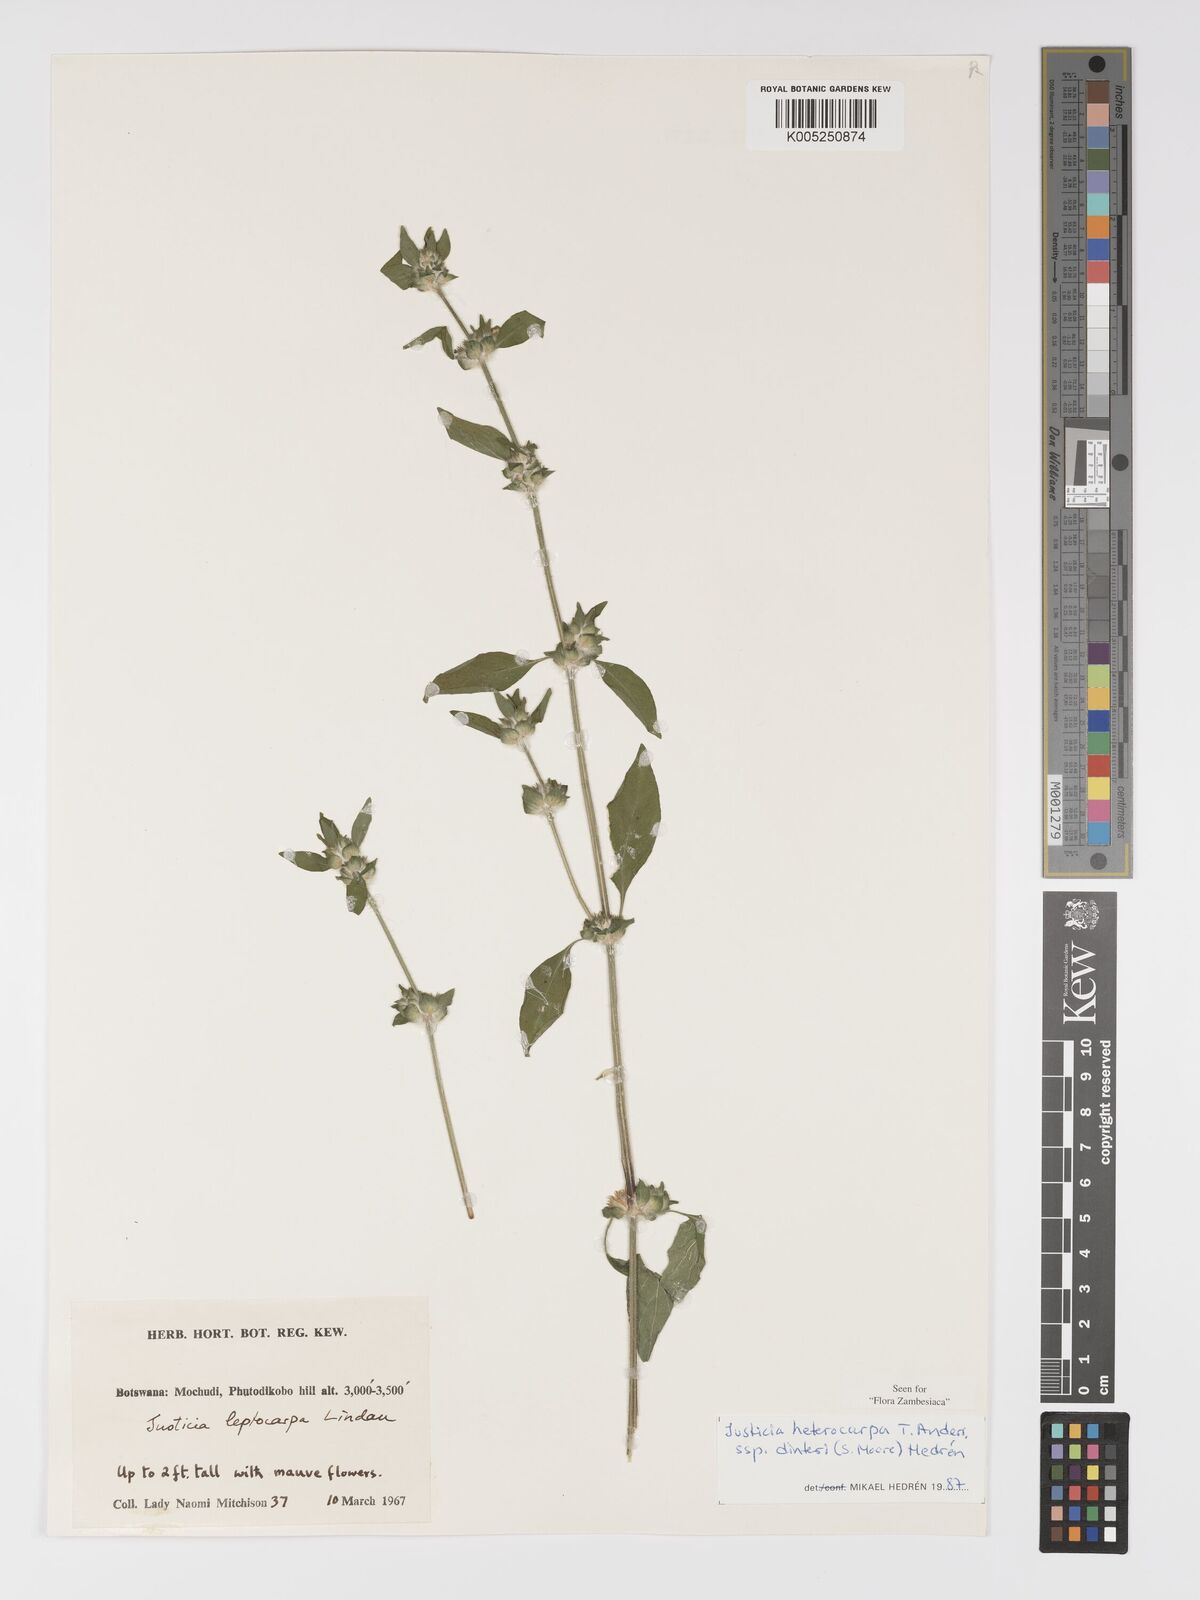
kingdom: Plantae
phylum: Tracheophyta
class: Magnoliopsida
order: Lamiales
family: Acanthaceae
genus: Justicia
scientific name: Justicia heterocarpa
